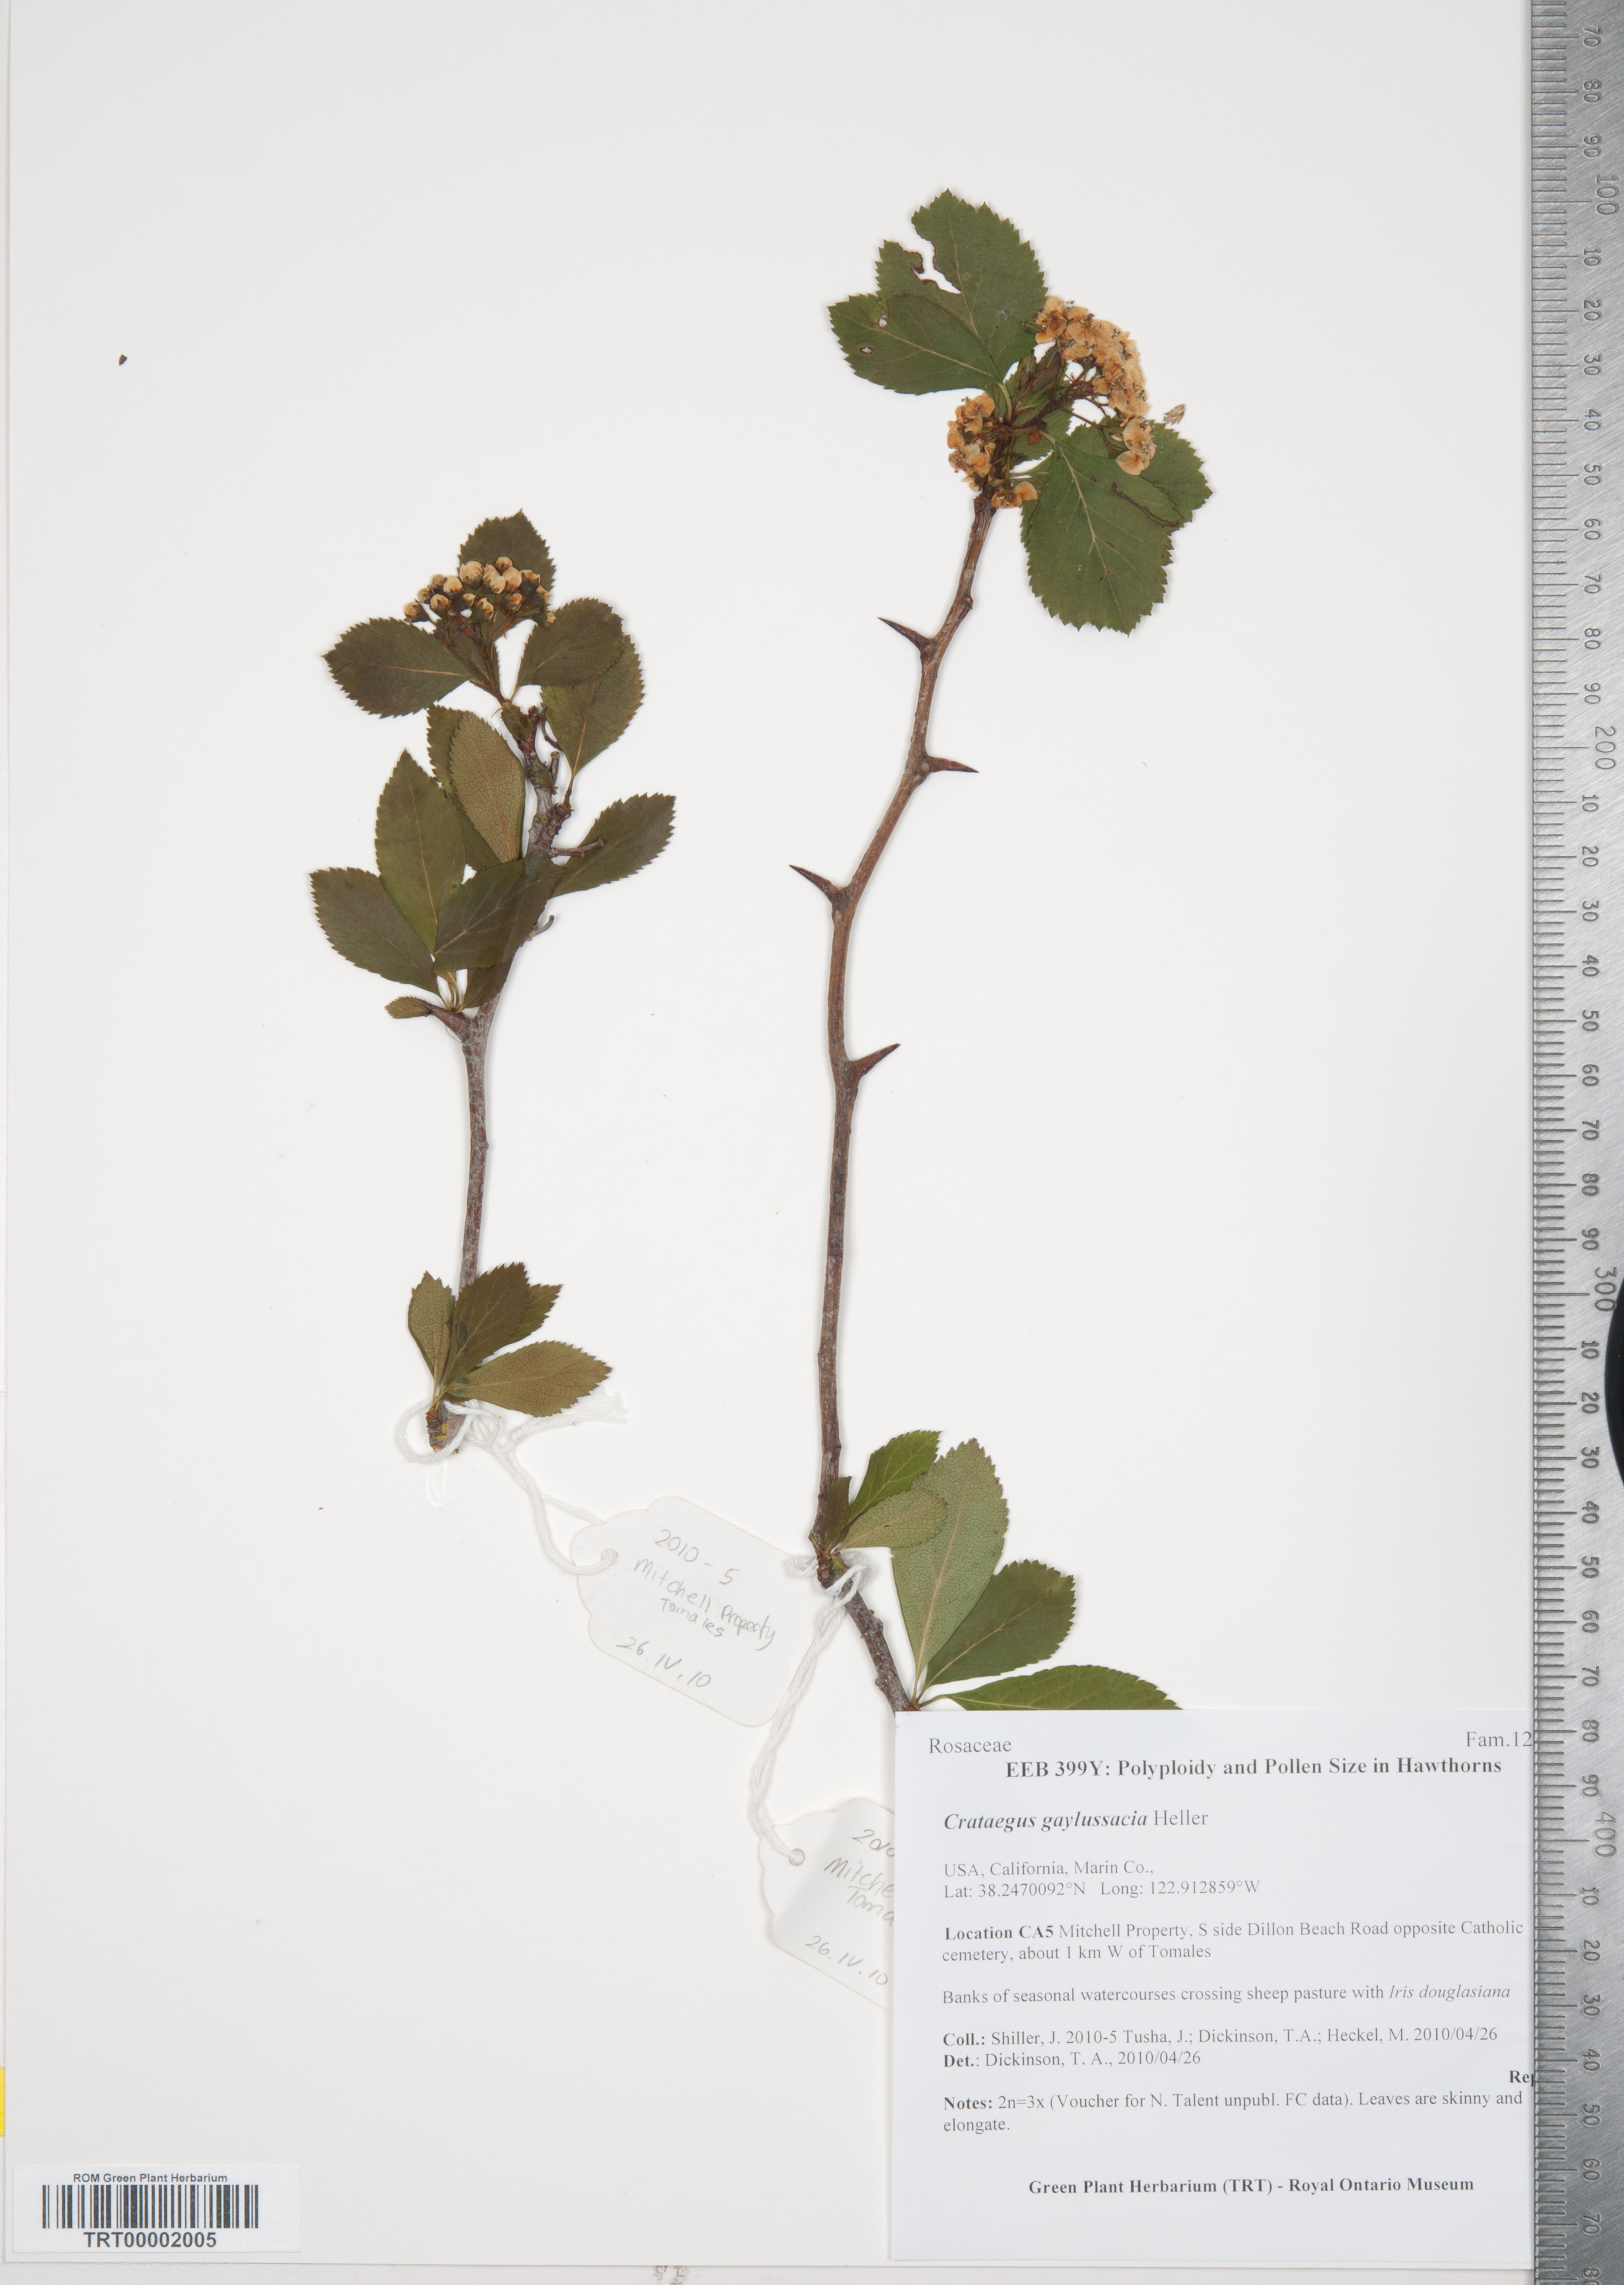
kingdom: Plantae
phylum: Tracheophyta
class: Magnoliopsida
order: Rosales
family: Rosaceae
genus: Crataegus
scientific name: Crataegus gaylussacia
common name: Huckleberry hawthorn
